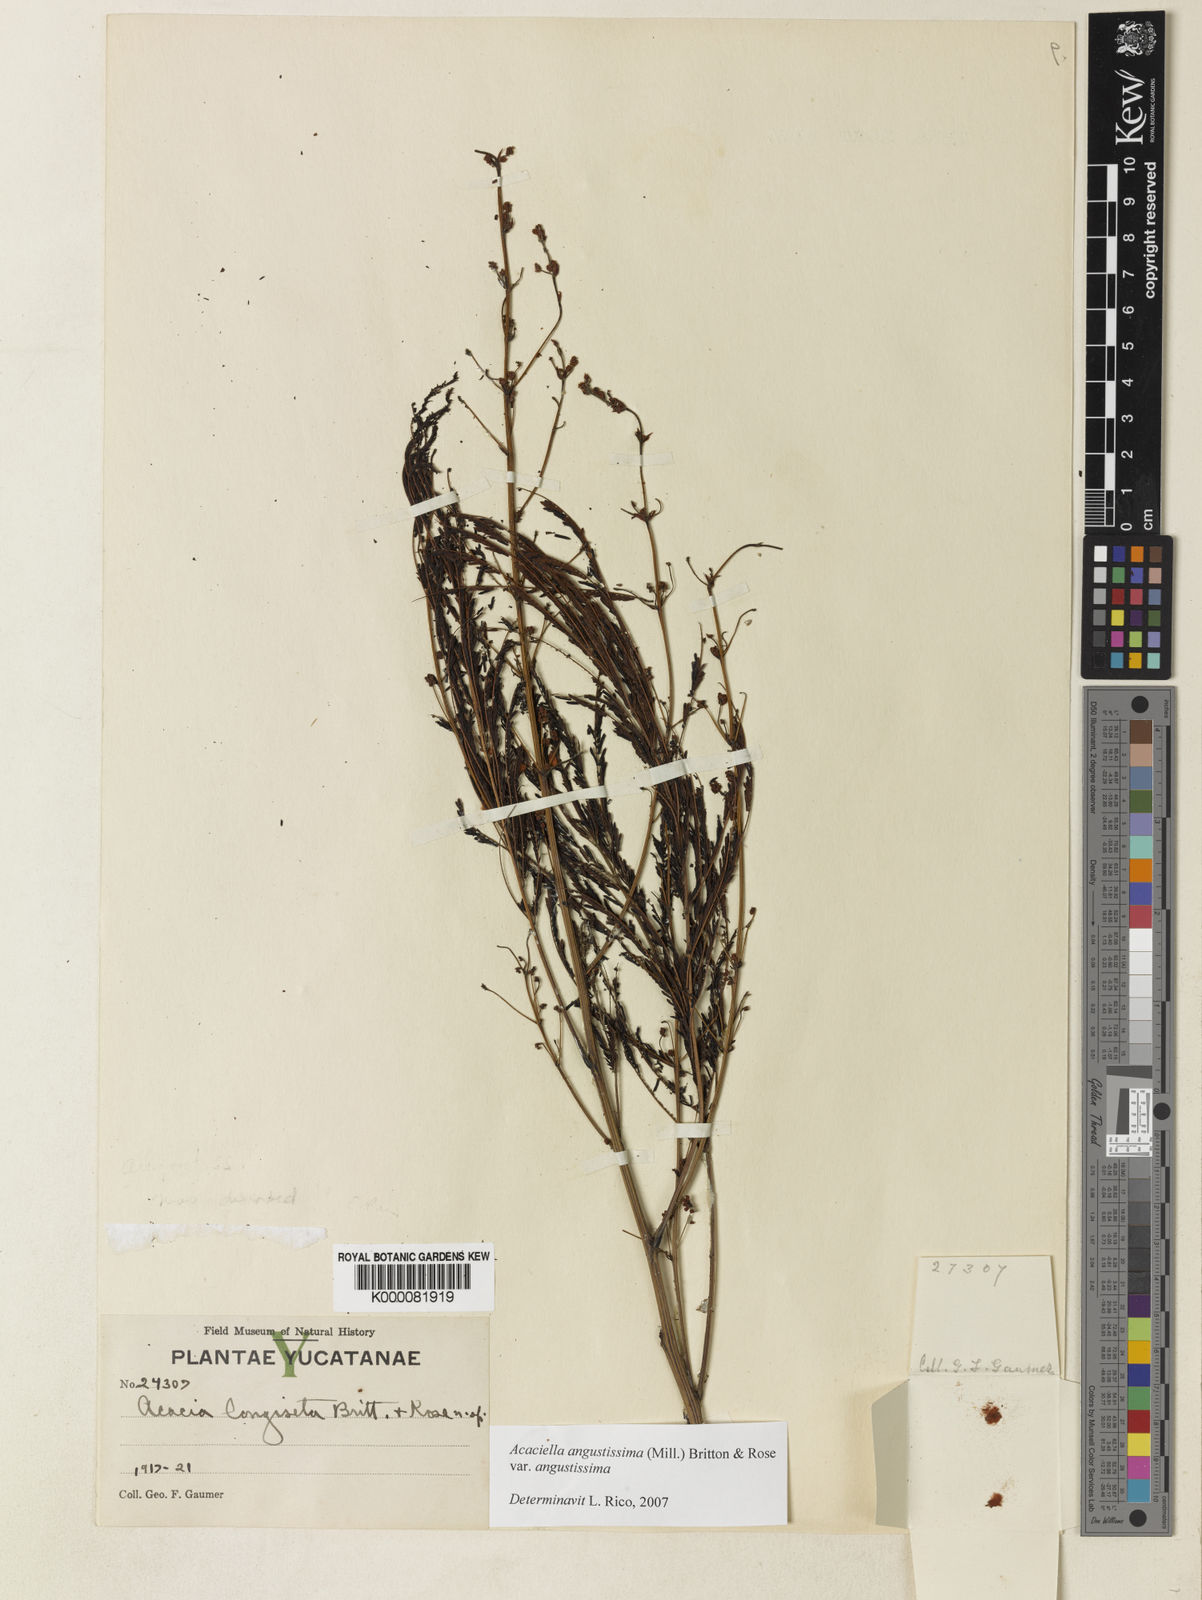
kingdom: Plantae
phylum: Tracheophyta
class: Magnoliopsida
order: Fabales
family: Fabaceae
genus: Acaciella
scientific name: Acaciella angustissima
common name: Prairie acacia
